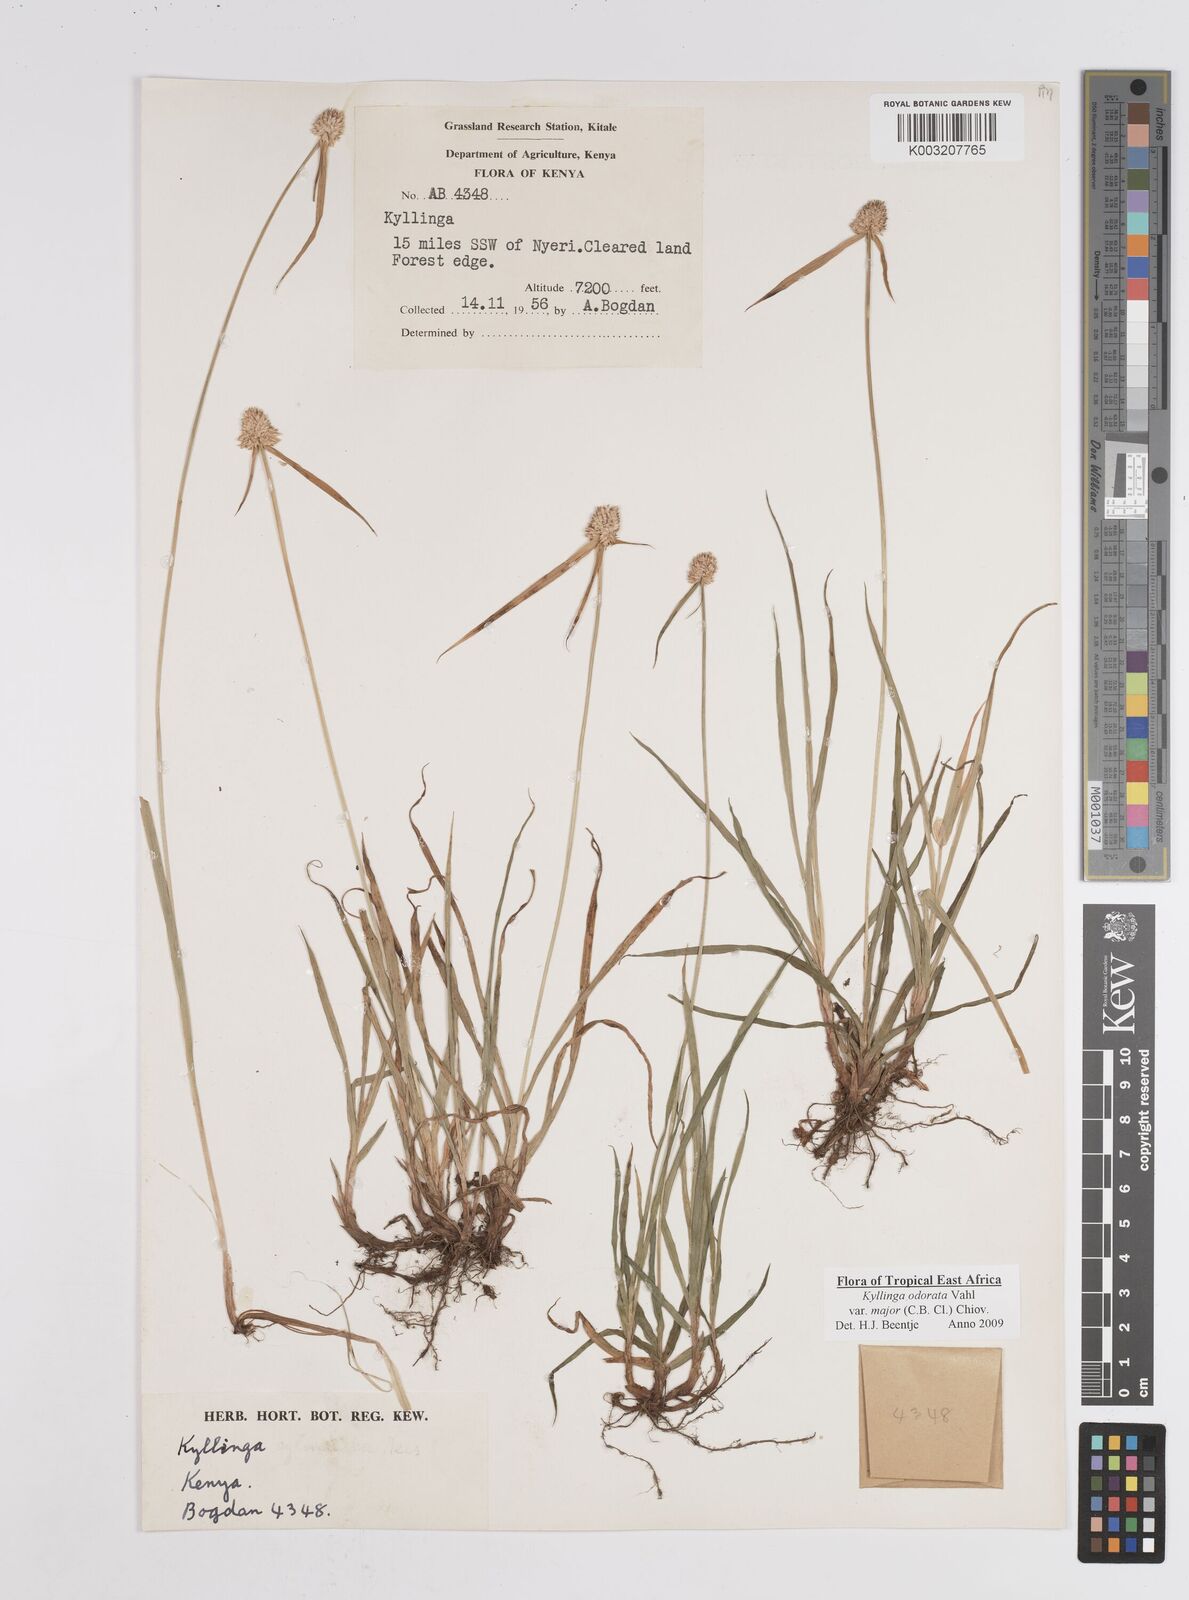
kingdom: Plantae
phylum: Tracheophyta
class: Liliopsida
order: Poales
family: Cyperaceae
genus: Cyperus
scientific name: Cyperus
